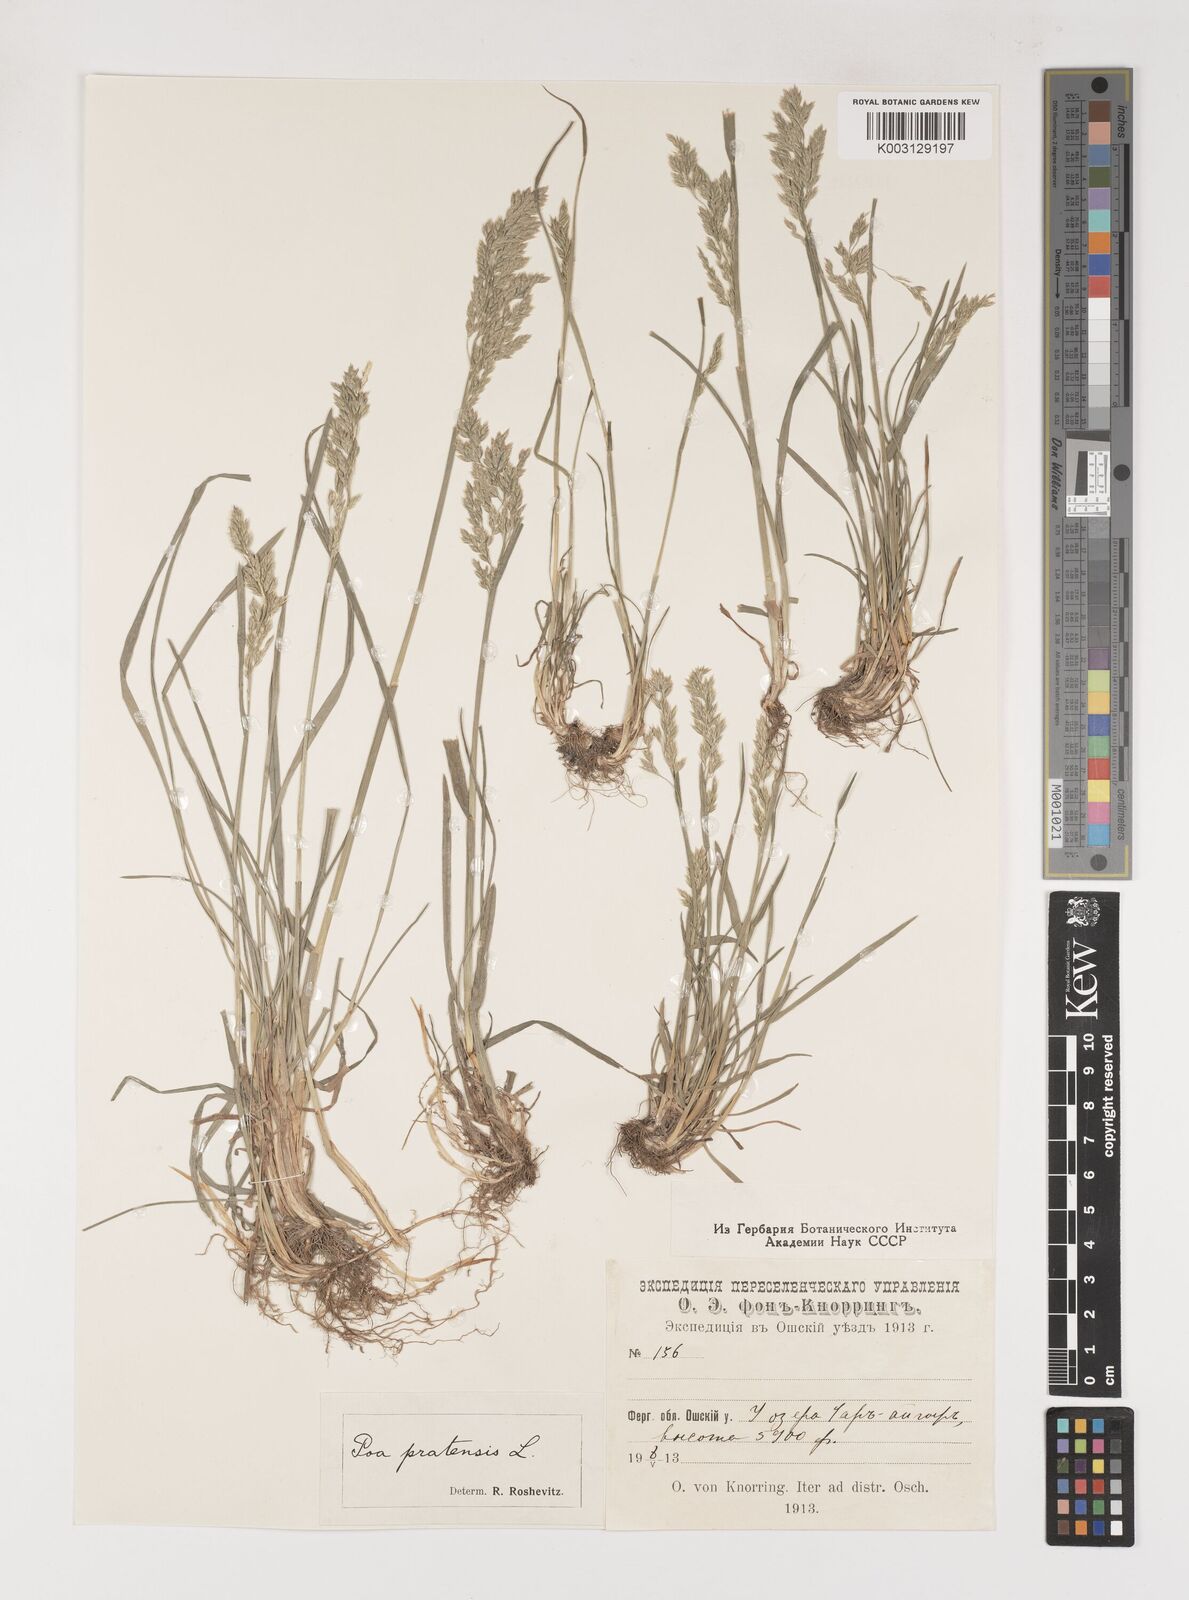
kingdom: Plantae
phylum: Tracheophyta
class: Liliopsida
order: Poales
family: Poaceae
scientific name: Poaceae
